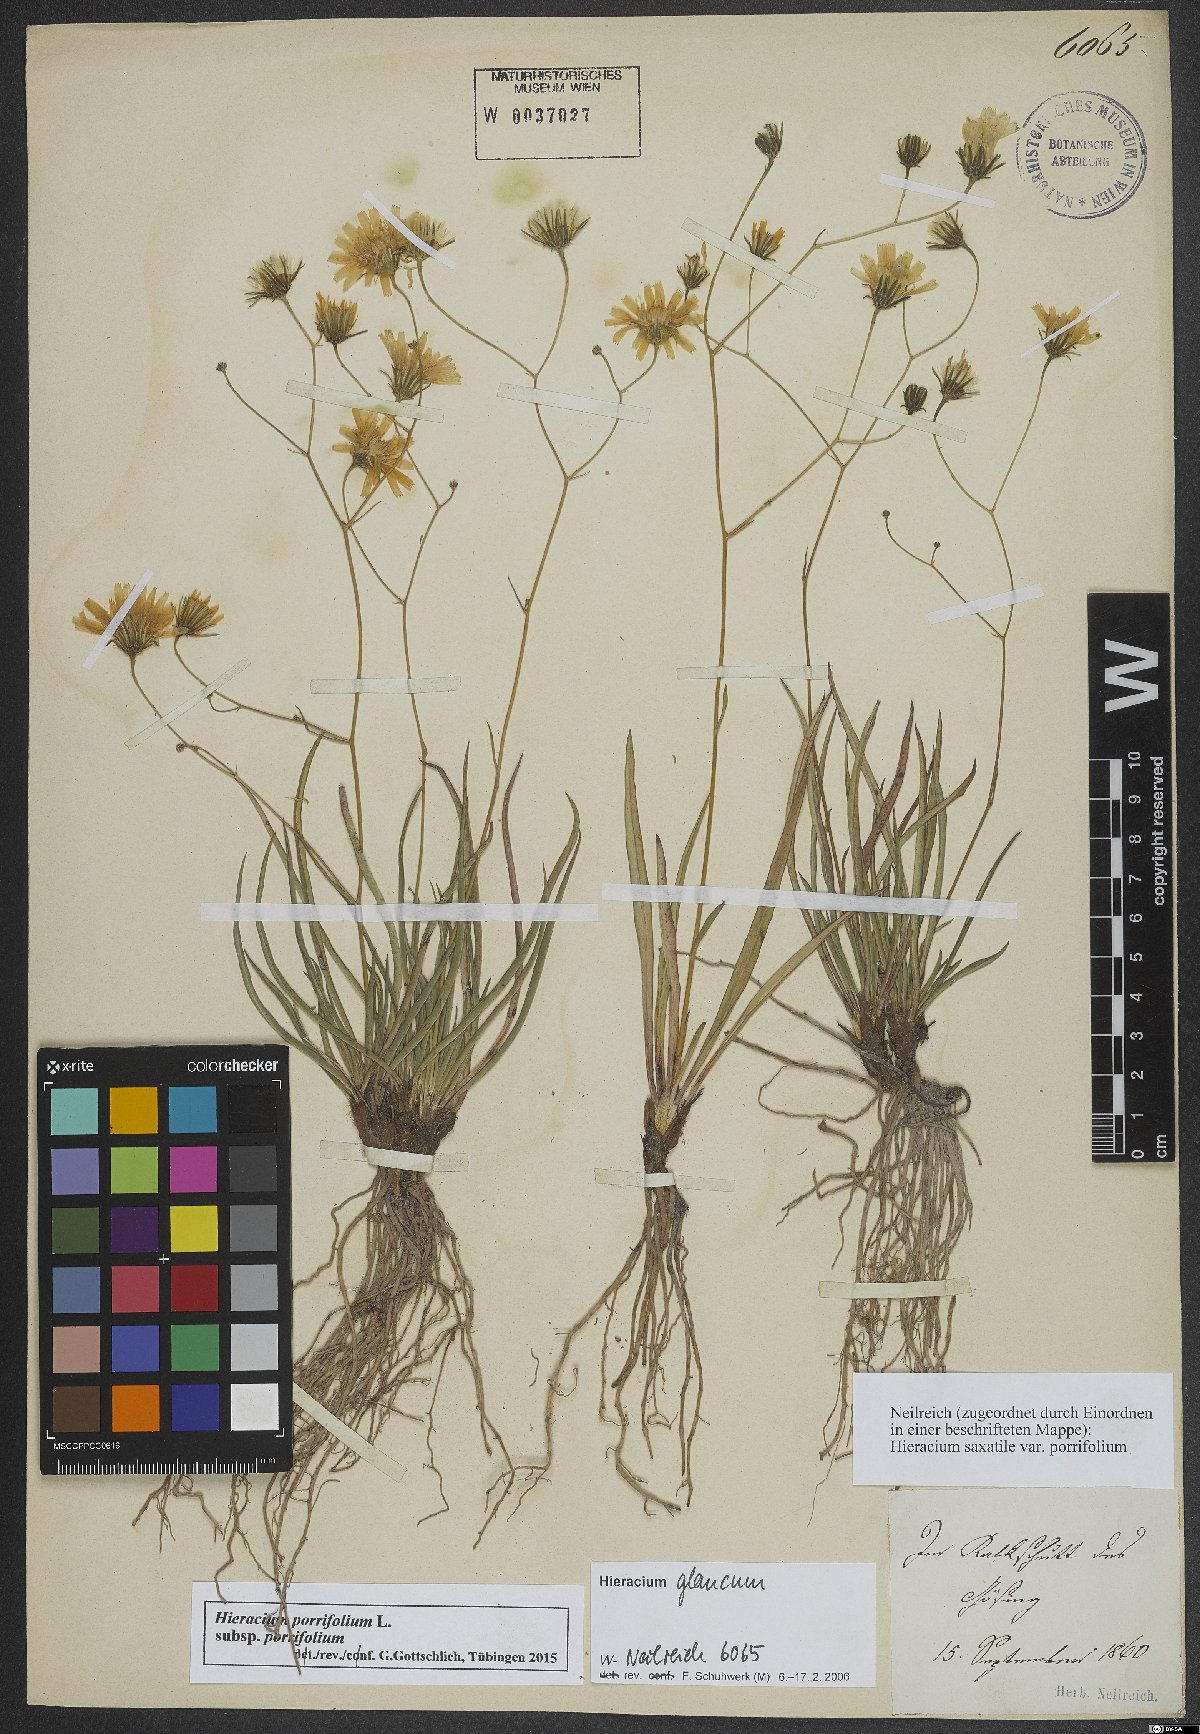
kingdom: Plantae
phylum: Tracheophyta
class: Magnoliopsida
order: Asterales
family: Asteraceae
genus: Hieracium
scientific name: Hieracium porrifolium
